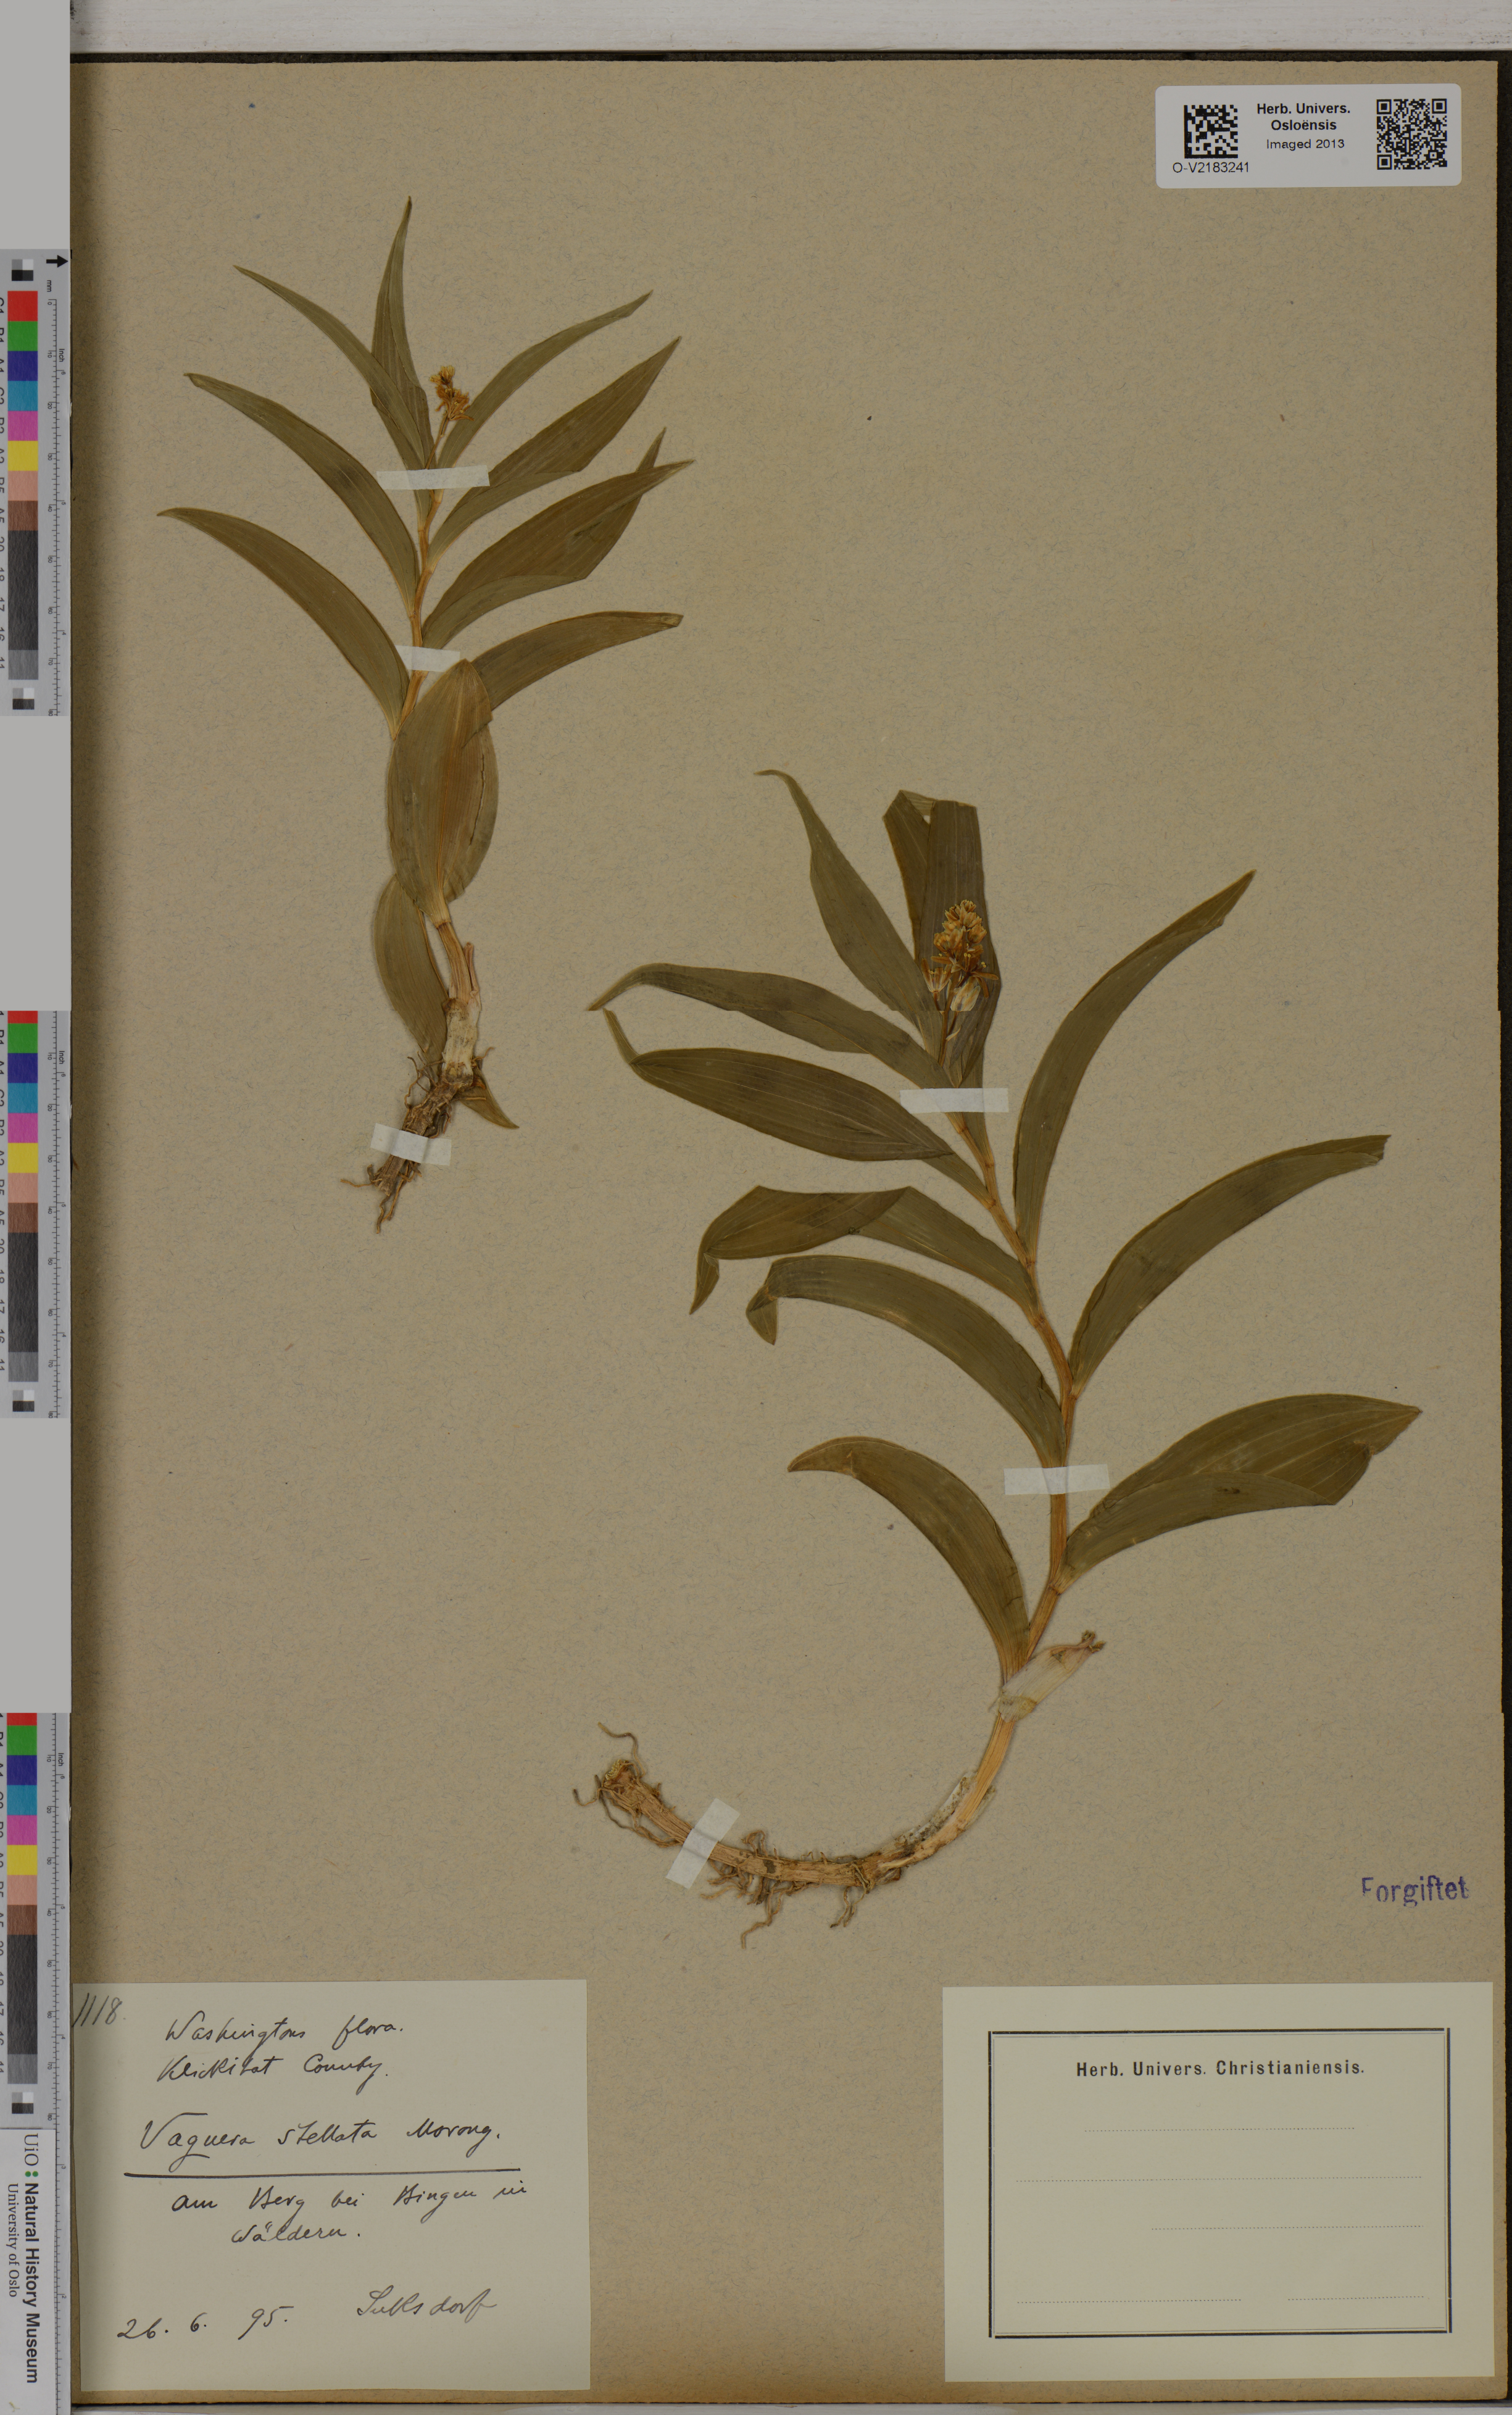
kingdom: Plantae
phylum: Tracheophyta
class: Liliopsida
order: Asparagales
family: Asparagaceae
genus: Maianthemum
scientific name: Maianthemum stellatum
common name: Little false solomon's seal
